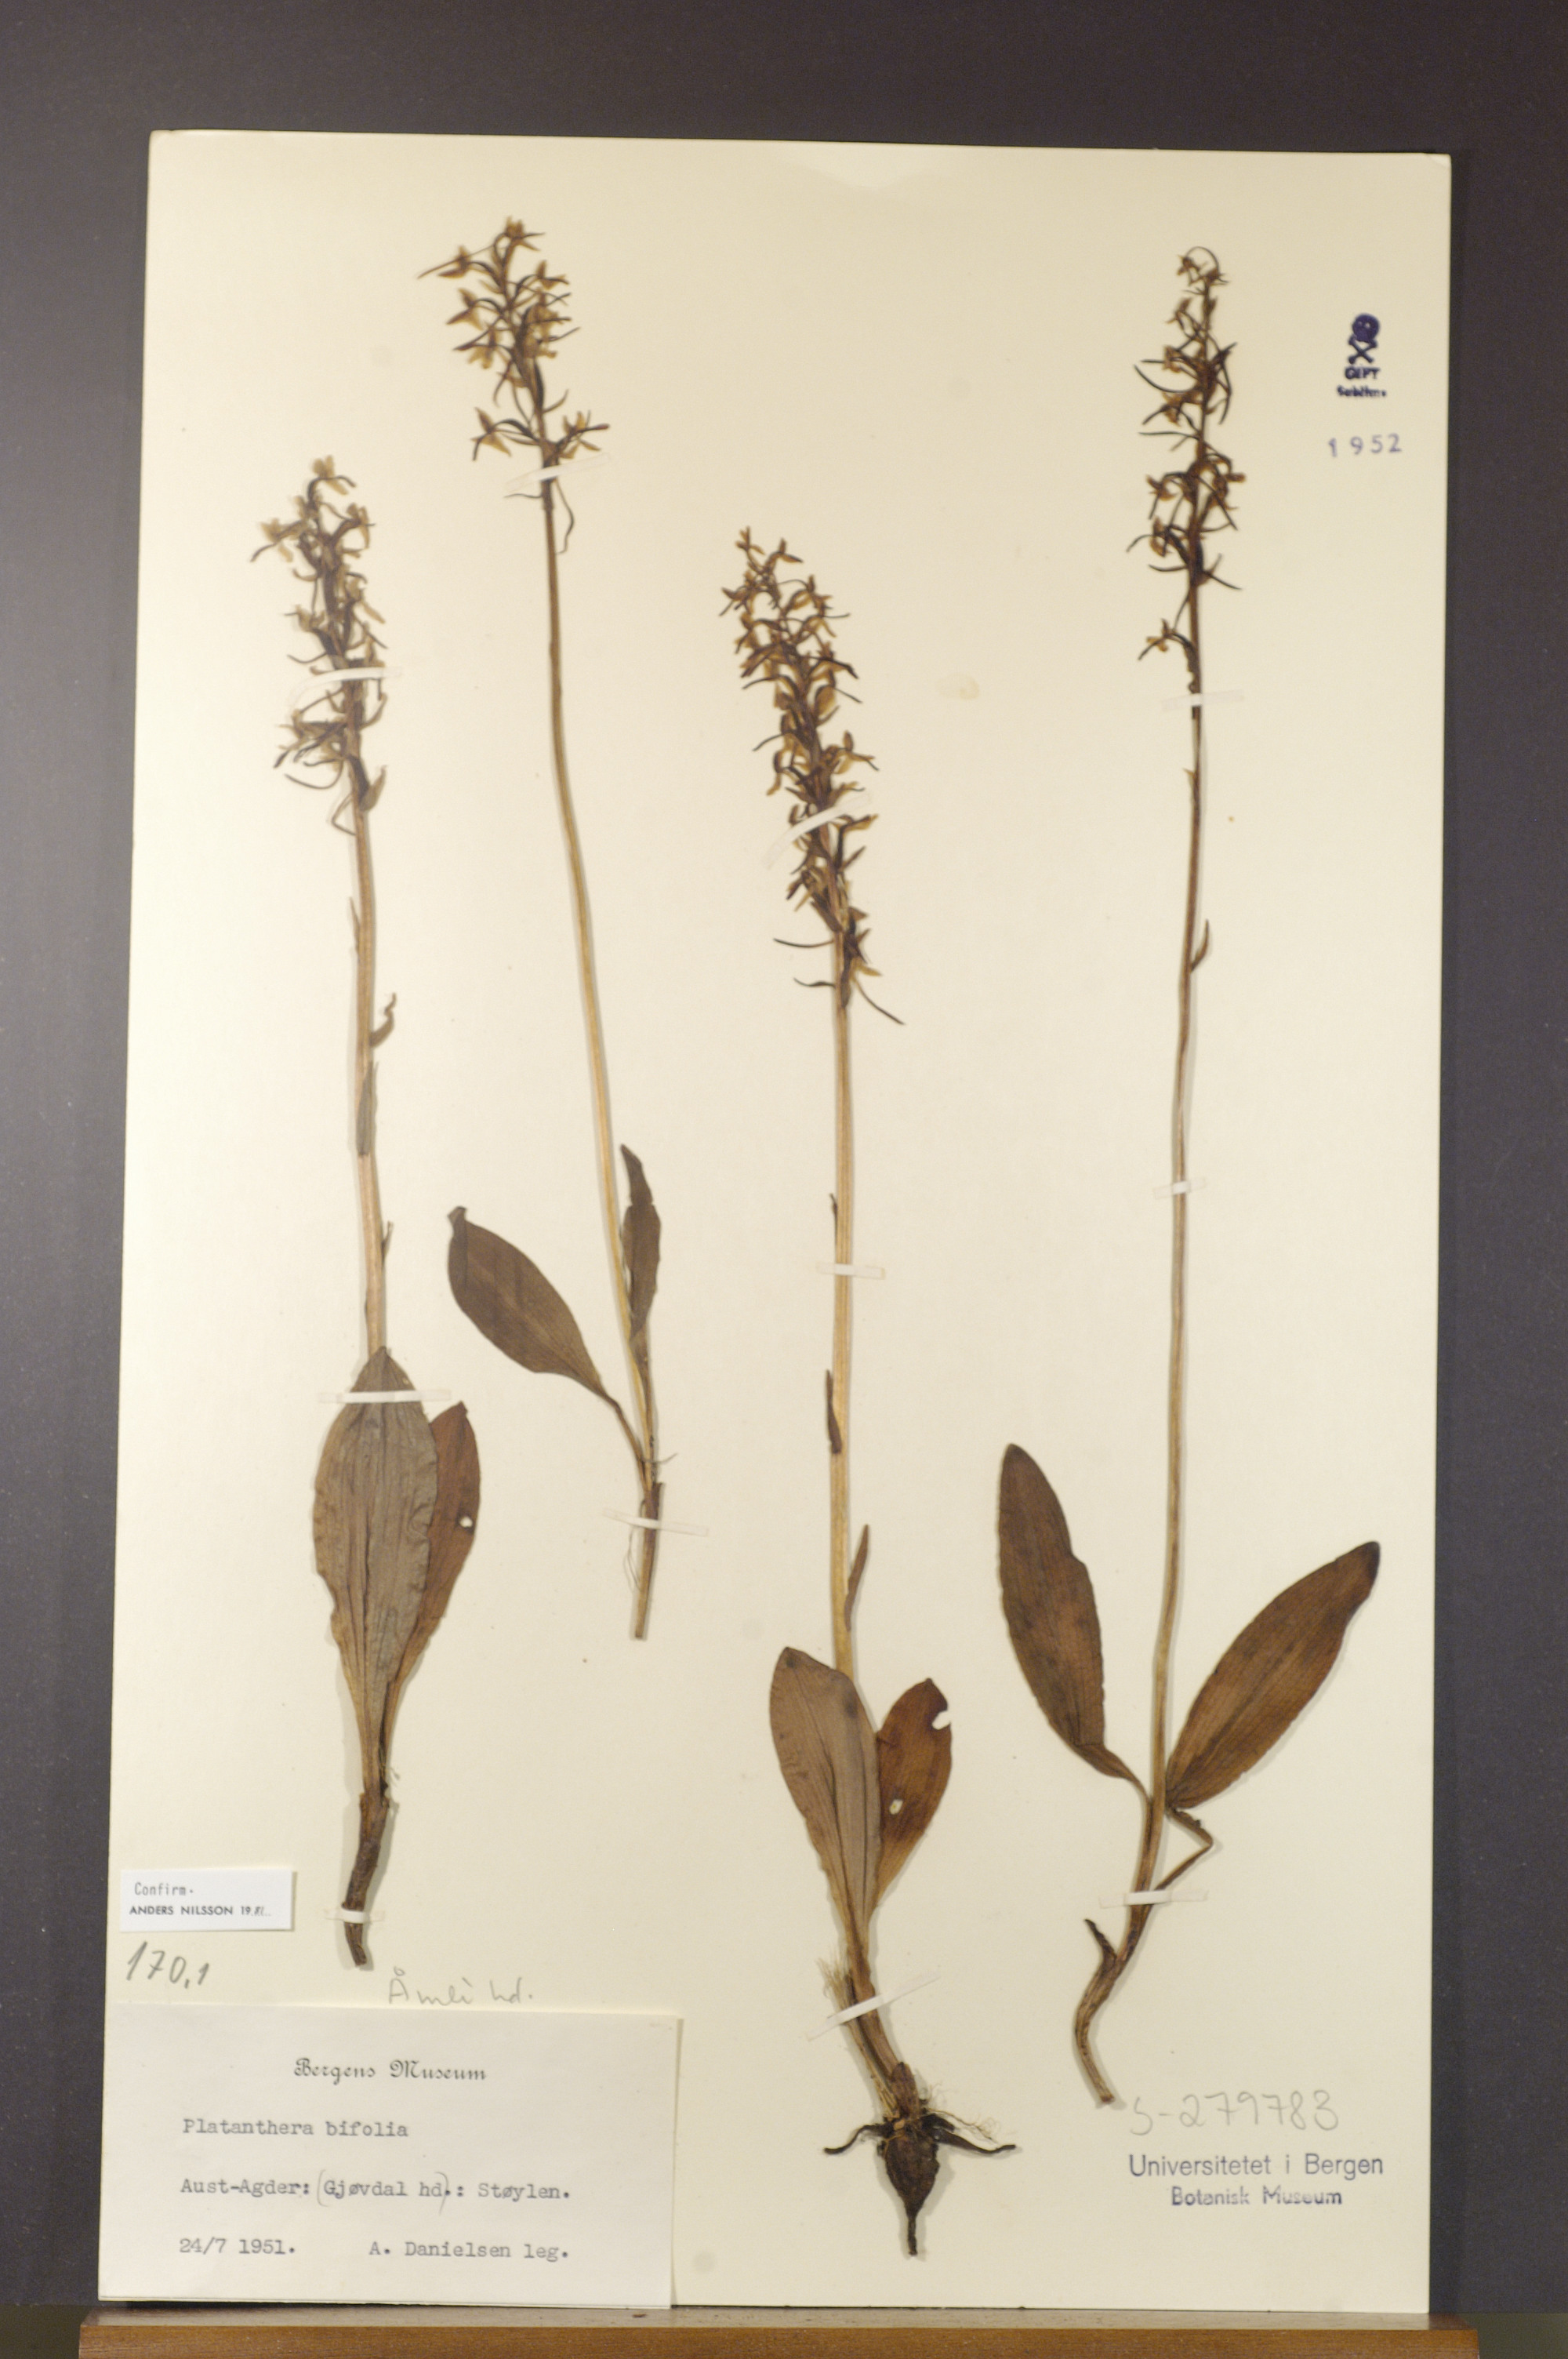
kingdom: Plantae
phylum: Tracheophyta
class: Liliopsida
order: Asparagales
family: Orchidaceae
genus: Platanthera
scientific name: Platanthera bifolia
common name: Lesser butterfly-orchid
